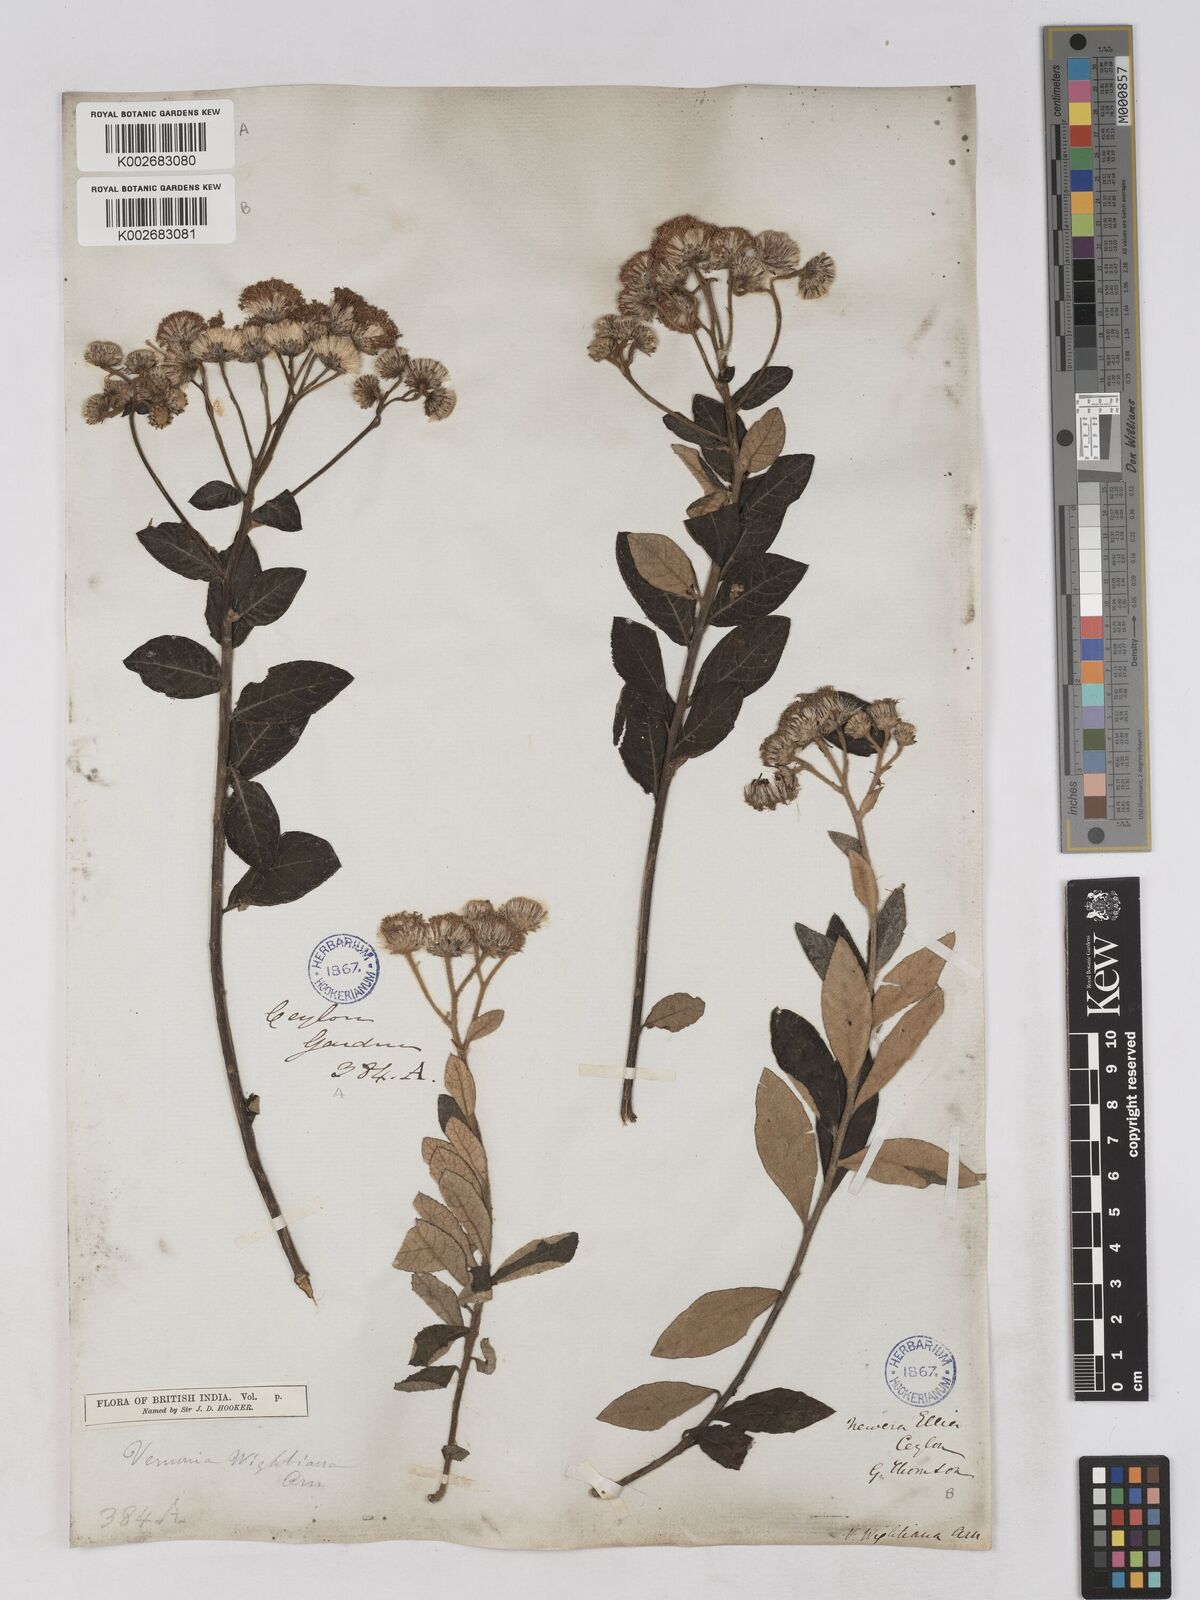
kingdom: Plantae
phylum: Tracheophyta
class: Magnoliopsida
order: Asterales
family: Asteraceae
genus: Uniyala
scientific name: Uniyala wightiana
